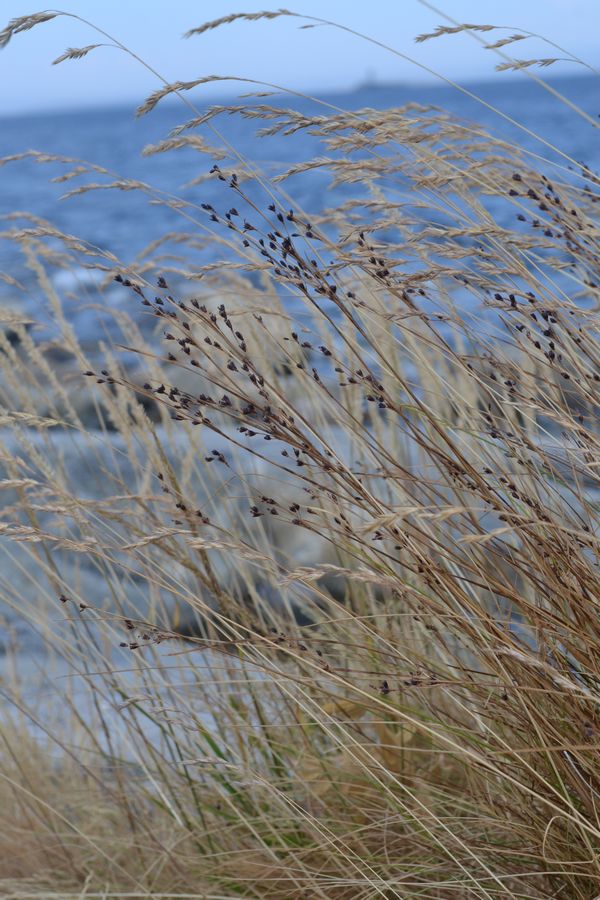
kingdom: Plantae
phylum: Tracheophyta
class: Liliopsida
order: Poales
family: Juncaceae
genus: Juncus
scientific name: Juncus alpinoarticulatus
